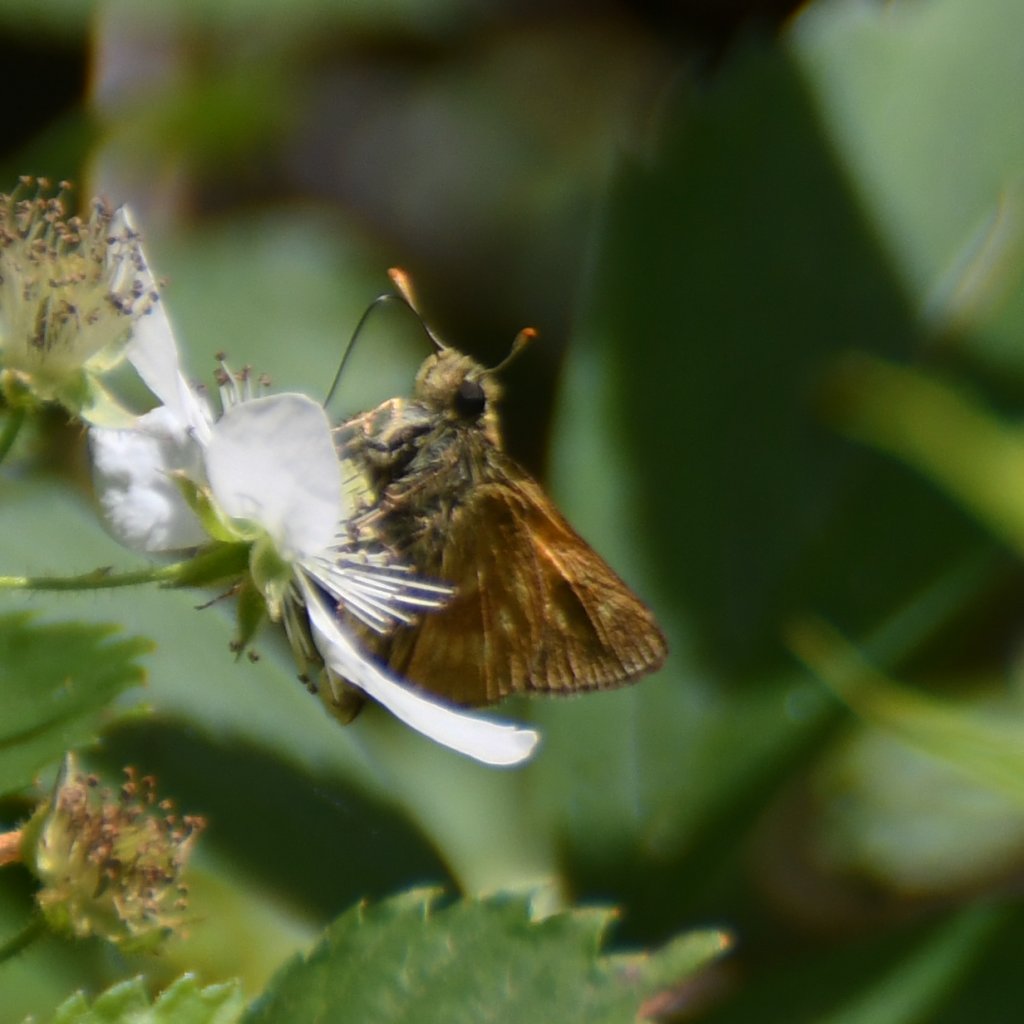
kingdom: Animalia
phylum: Arthropoda
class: Insecta
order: Lepidoptera
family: Hesperiidae
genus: Polites
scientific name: Polites
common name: Long Dash Skipper
